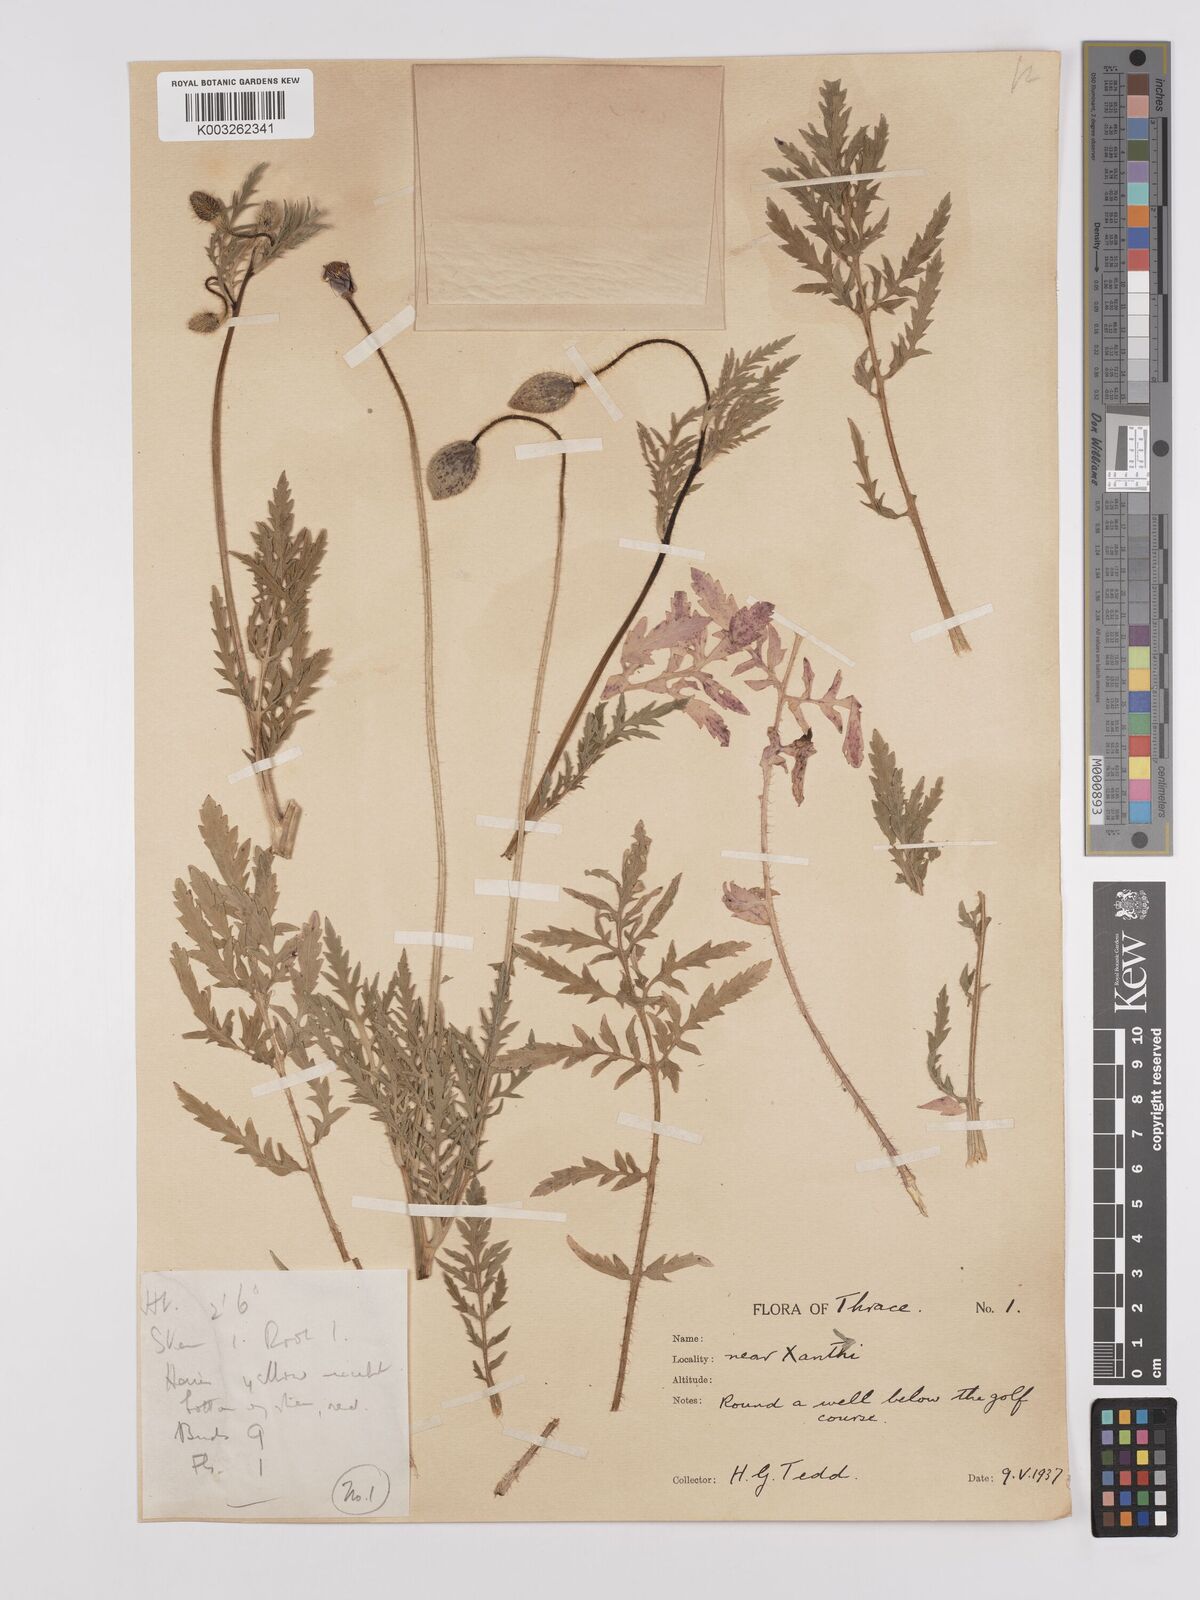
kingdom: Plantae
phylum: Tracheophyta
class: Magnoliopsida
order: Ranunculales
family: Papaveraceae
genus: Papaver
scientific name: Papaver rhoeas
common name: Corn poppy
